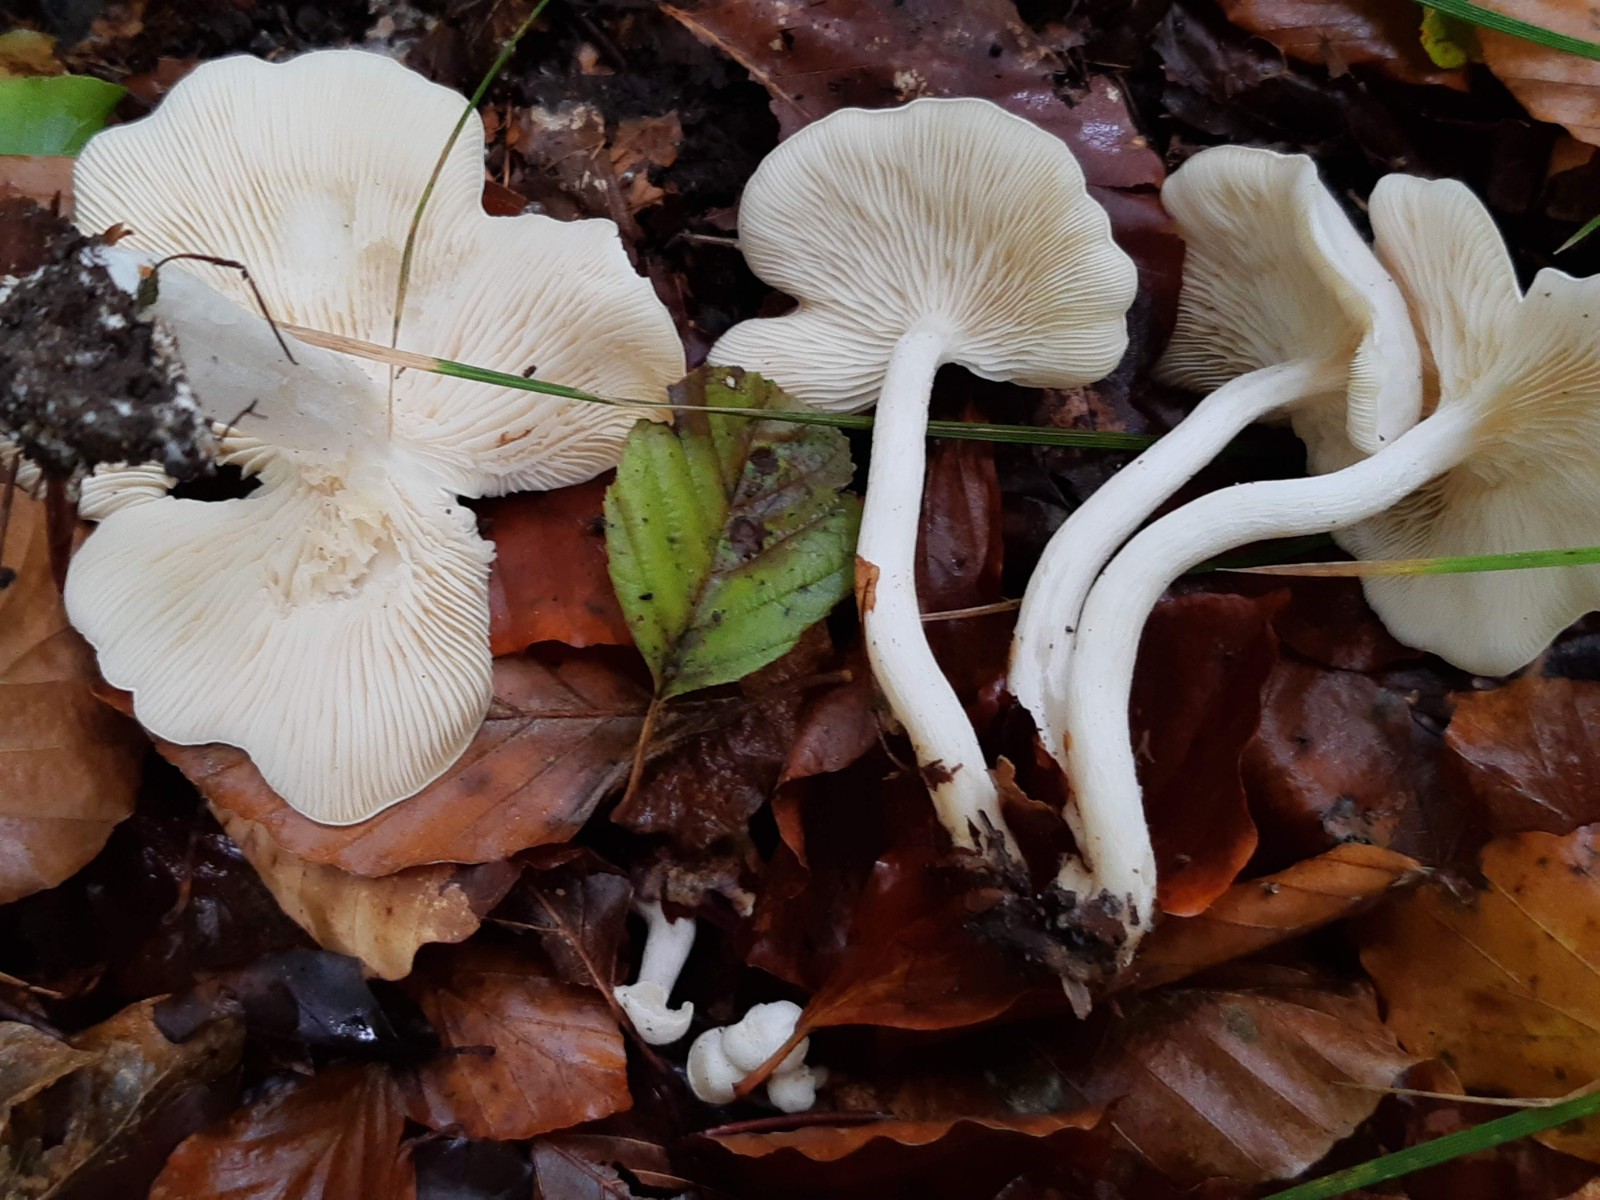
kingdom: Fungi
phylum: Basidiomycota
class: Agaricomycetes
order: Agaricales
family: Tricholomataceae
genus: Leucocybe
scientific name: Leucocybe connata
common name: knippe-tragthat
